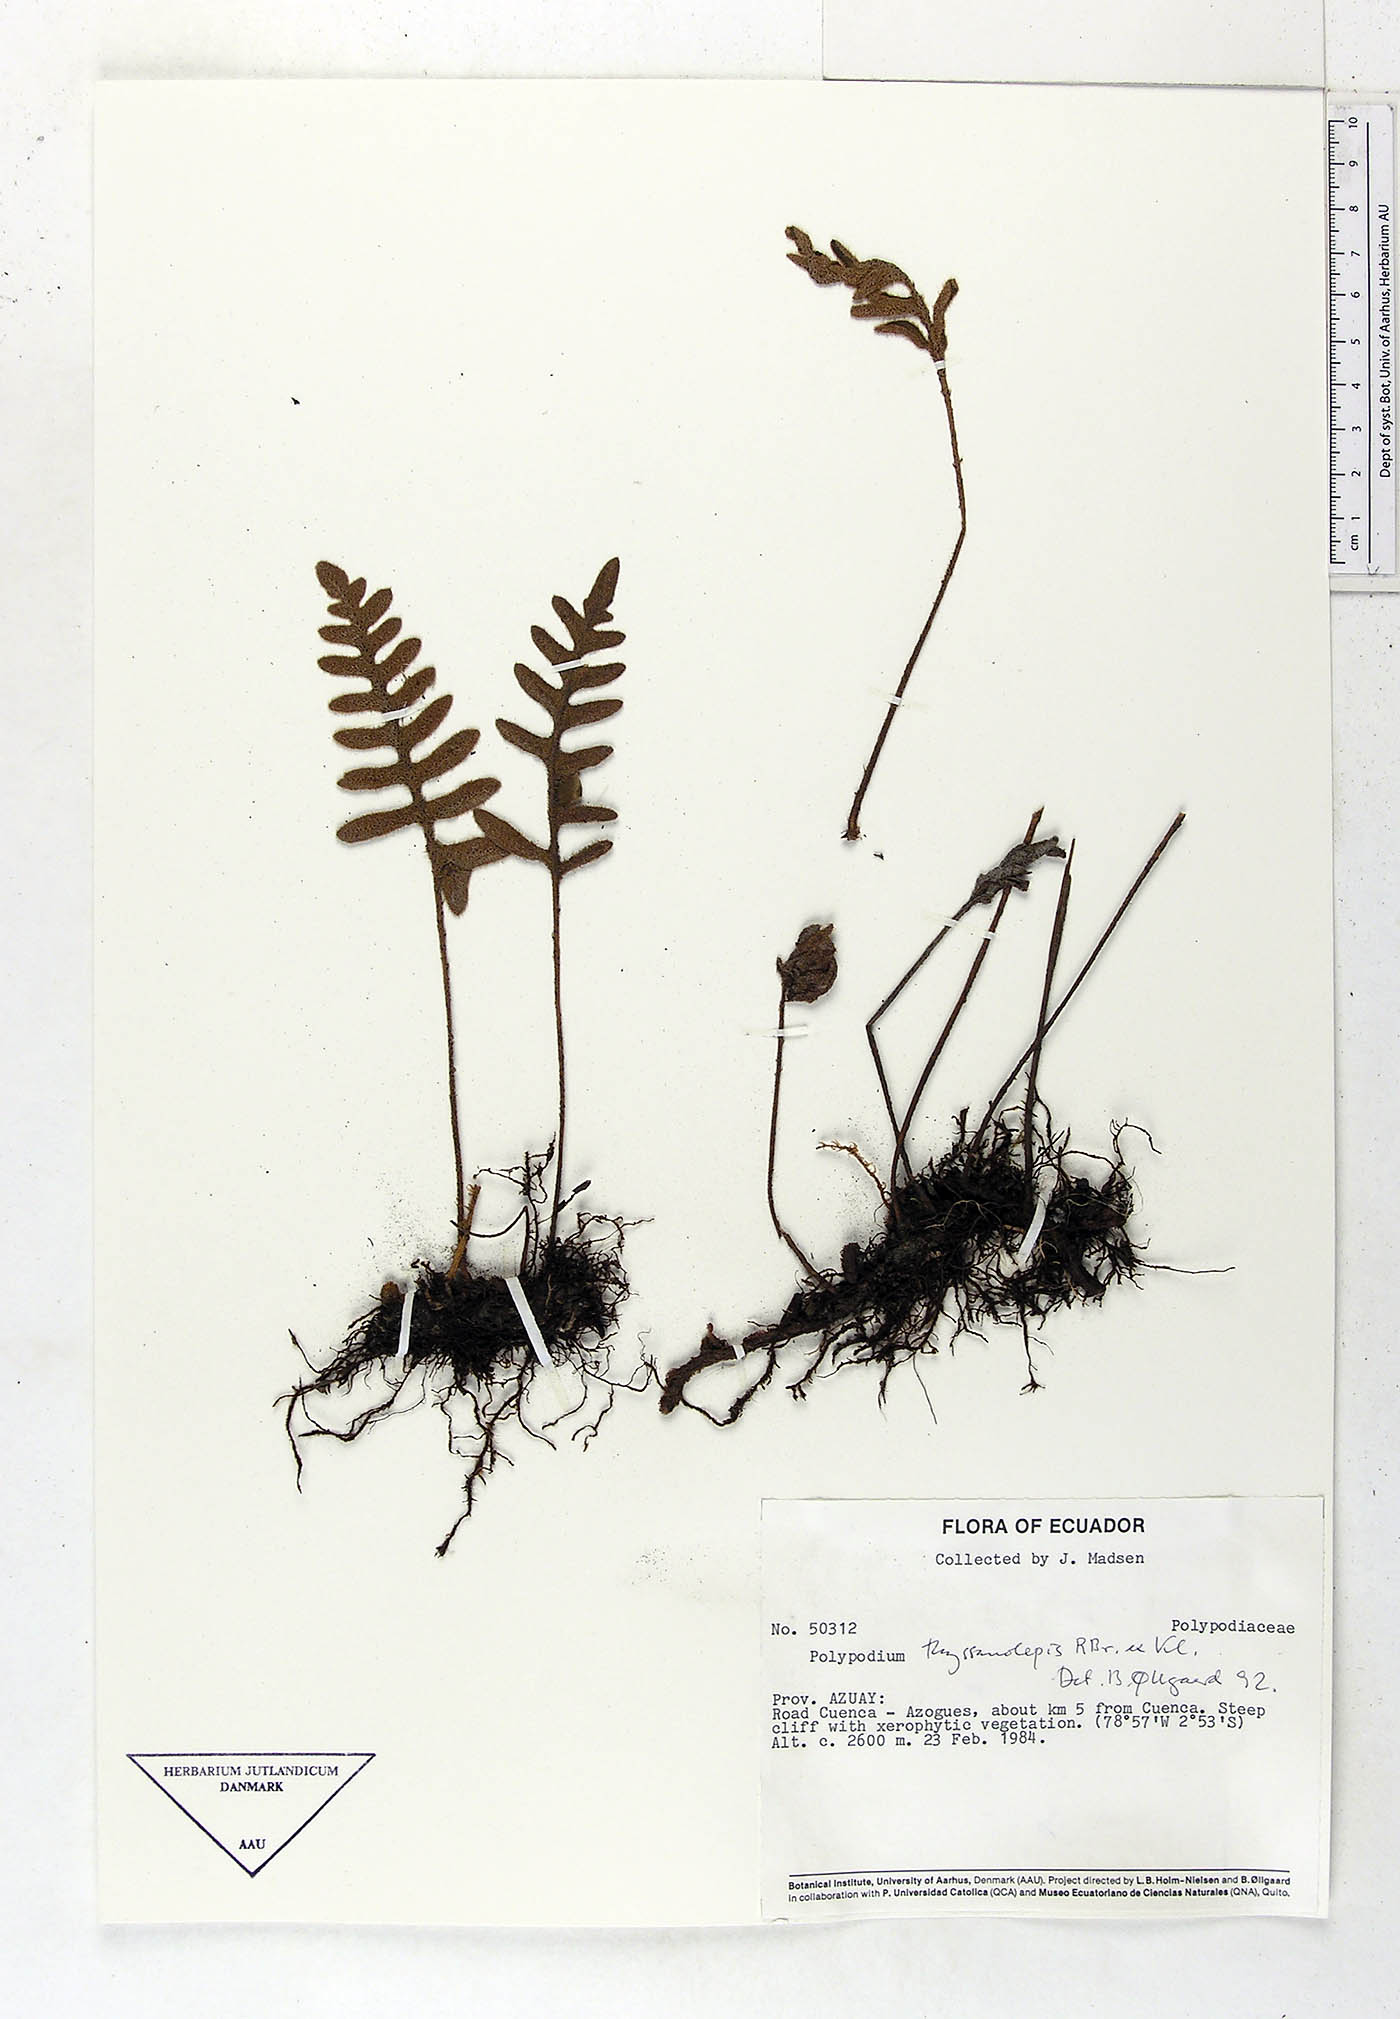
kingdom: Plantae
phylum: Tracheophyta
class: Polypodiopsida
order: Polypodiales
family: Polypodiaceae
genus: Pleopeltis
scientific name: Pleopeltis thyssanolepis
